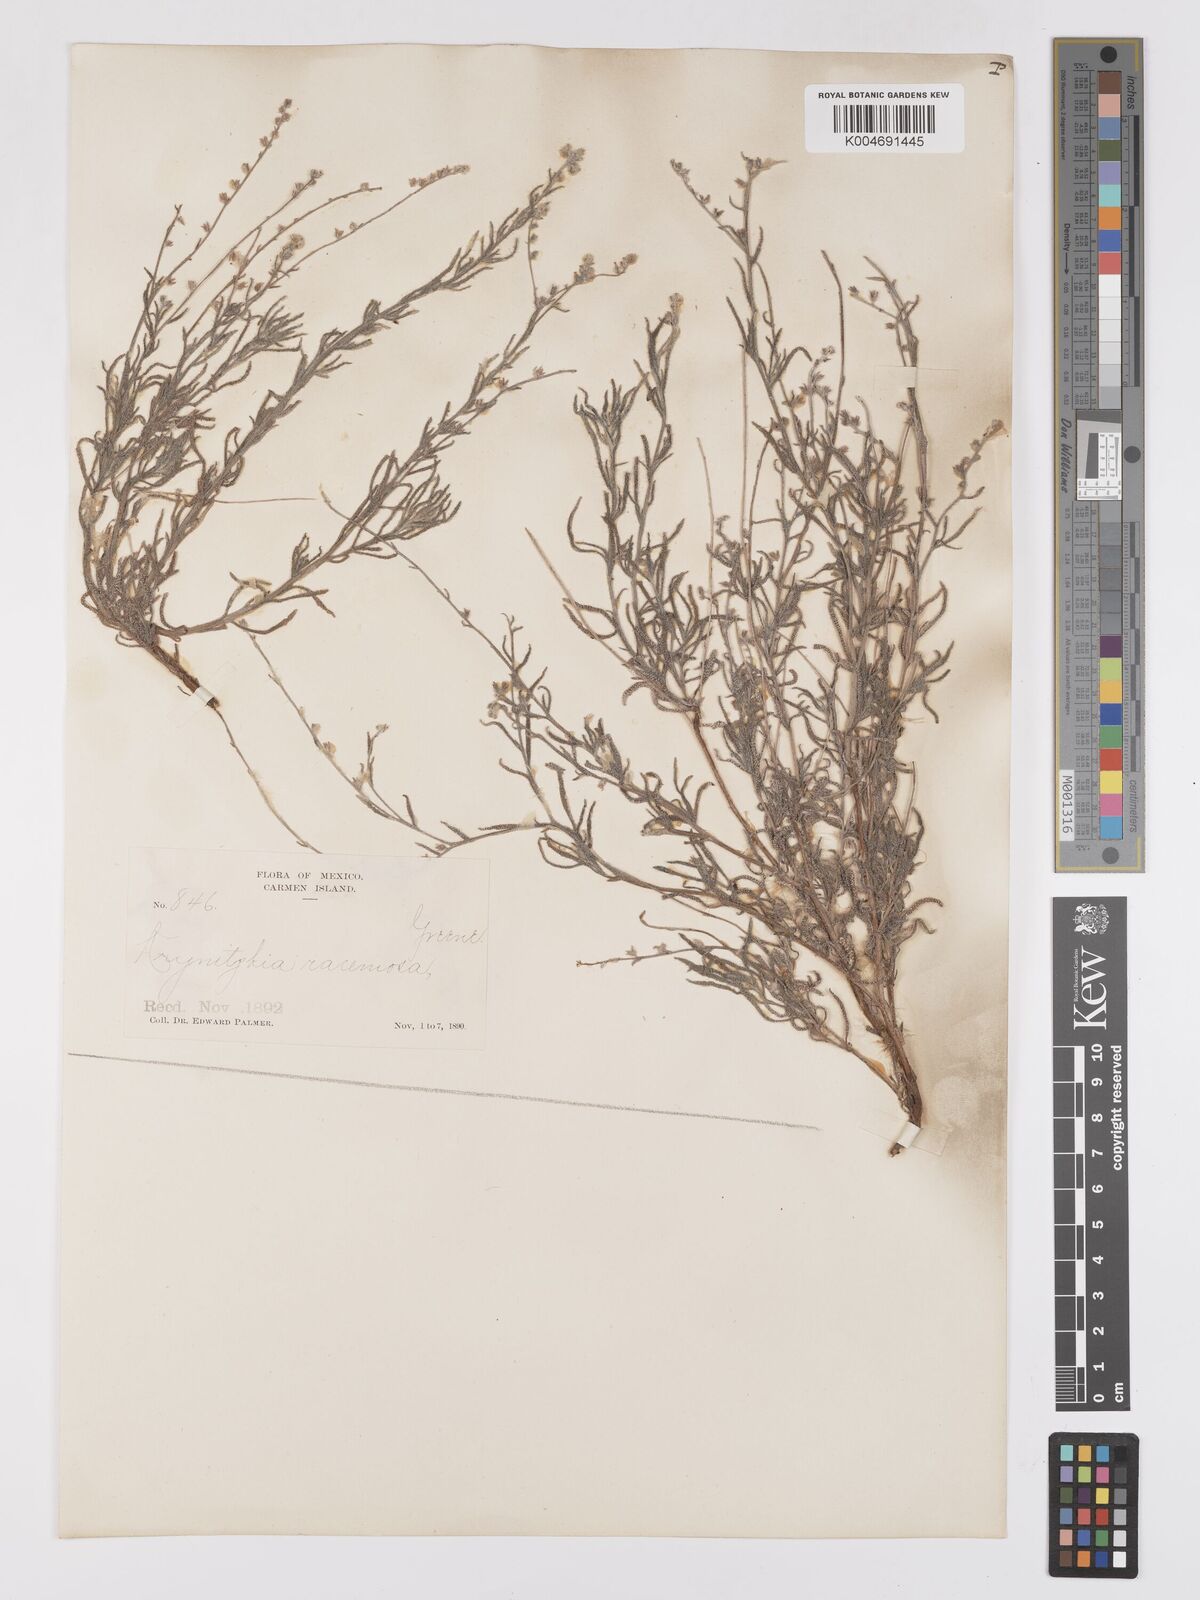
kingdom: Plantae
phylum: Tracheophyta
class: Magnoliopsida
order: Boraginales
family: Boraginaceae
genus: Johnstonella
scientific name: Johnstonella racemosa
